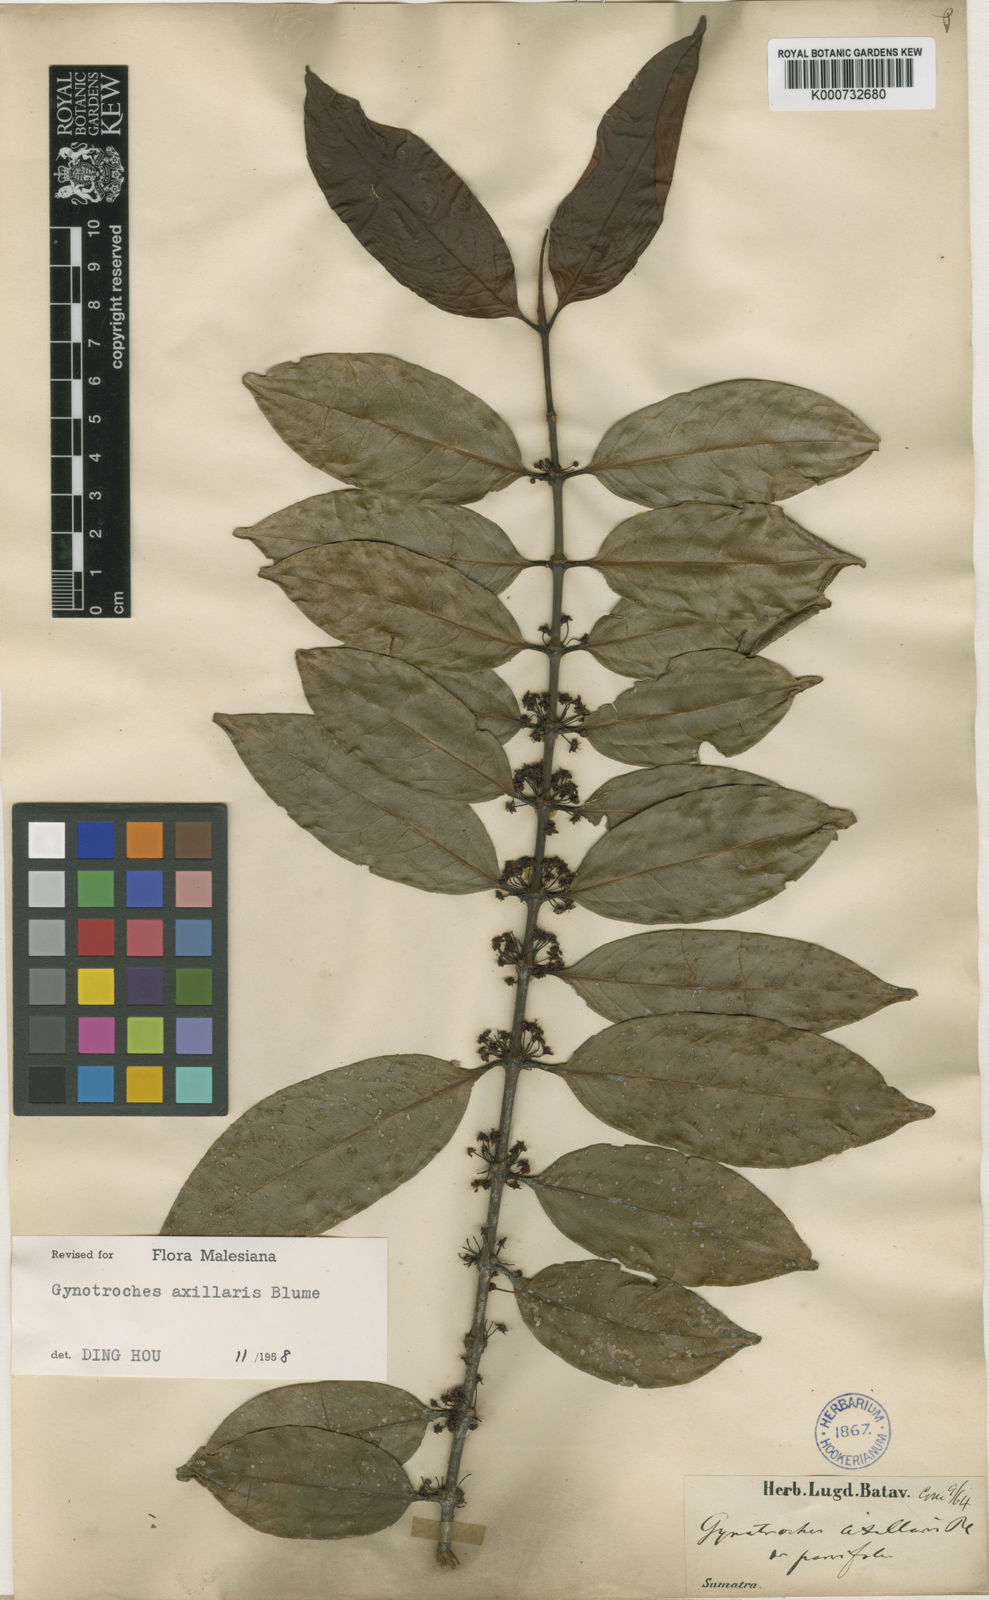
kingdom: Plantae
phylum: Tracheophyta
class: Magnoliopsida
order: Malpighiales
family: Rhizophoraceae
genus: Gynotroches
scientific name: Gynotroches axillaris
